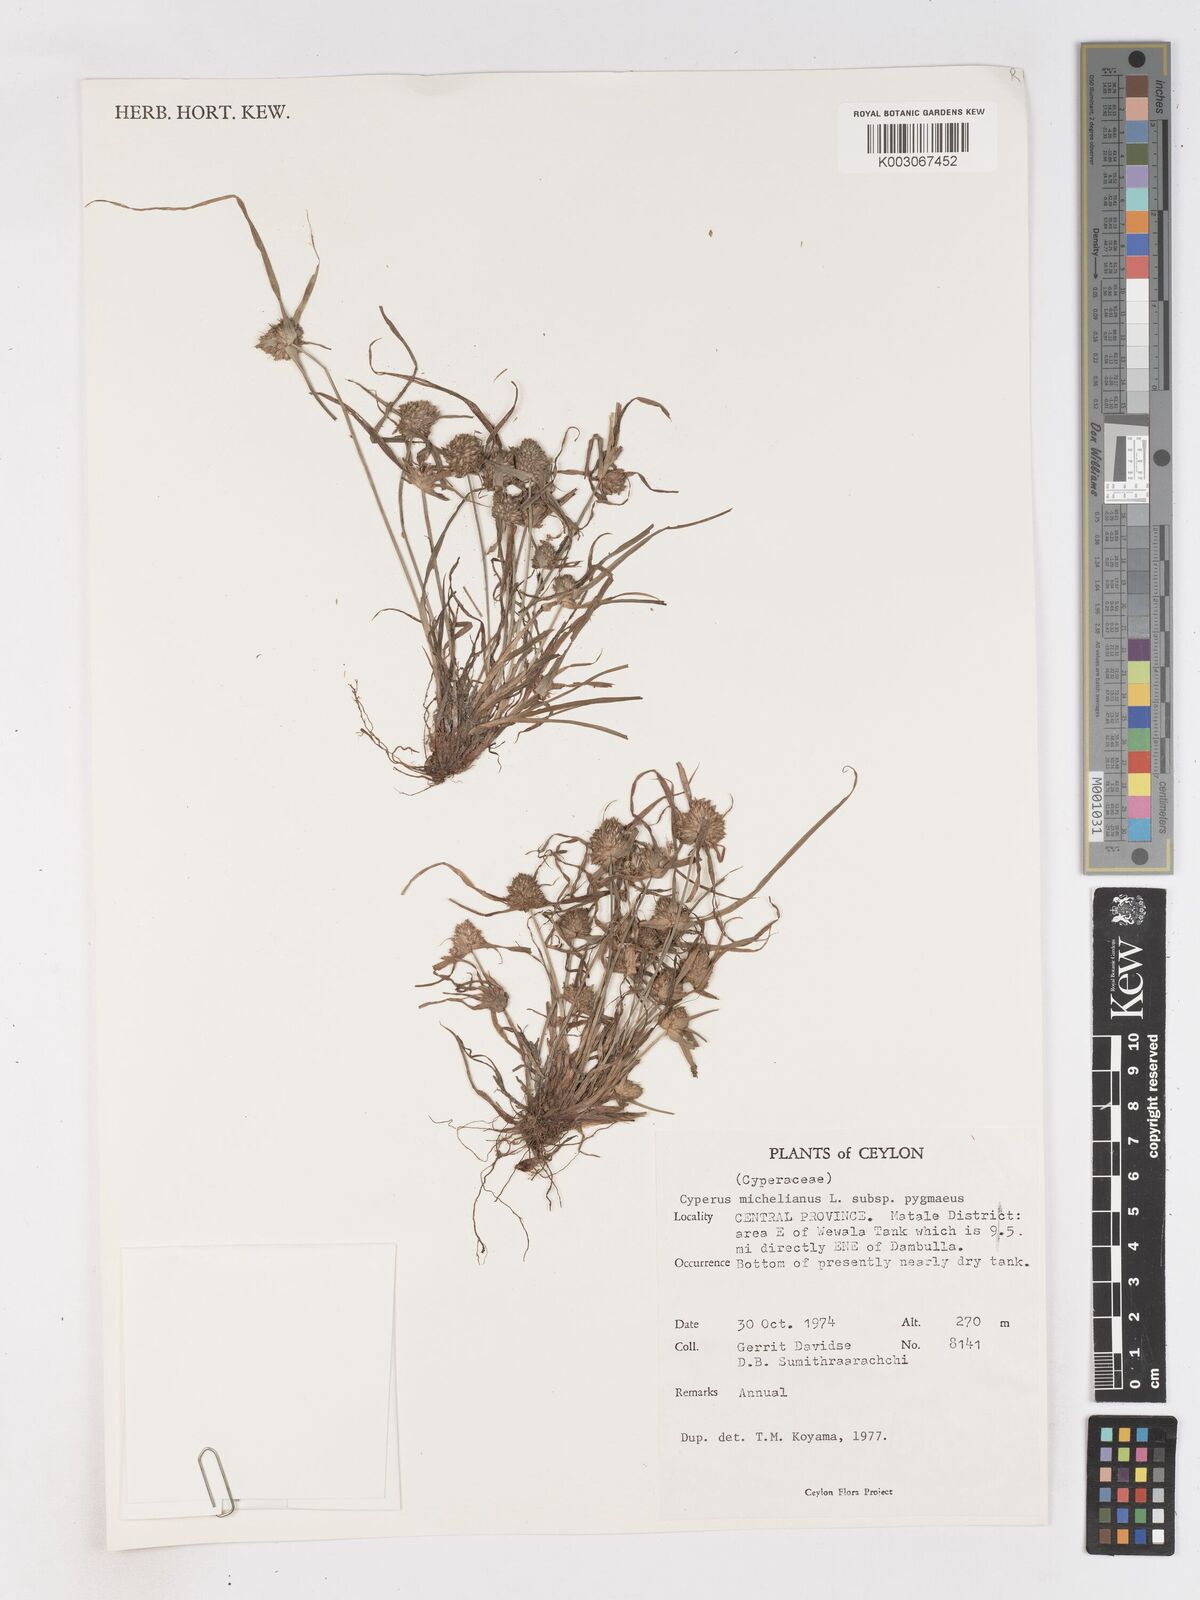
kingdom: Plantae
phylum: Tracheophyta
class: Liliopsida
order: Poales
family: Cyperaceae
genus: Cyperus
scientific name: Cyperus michelianus
